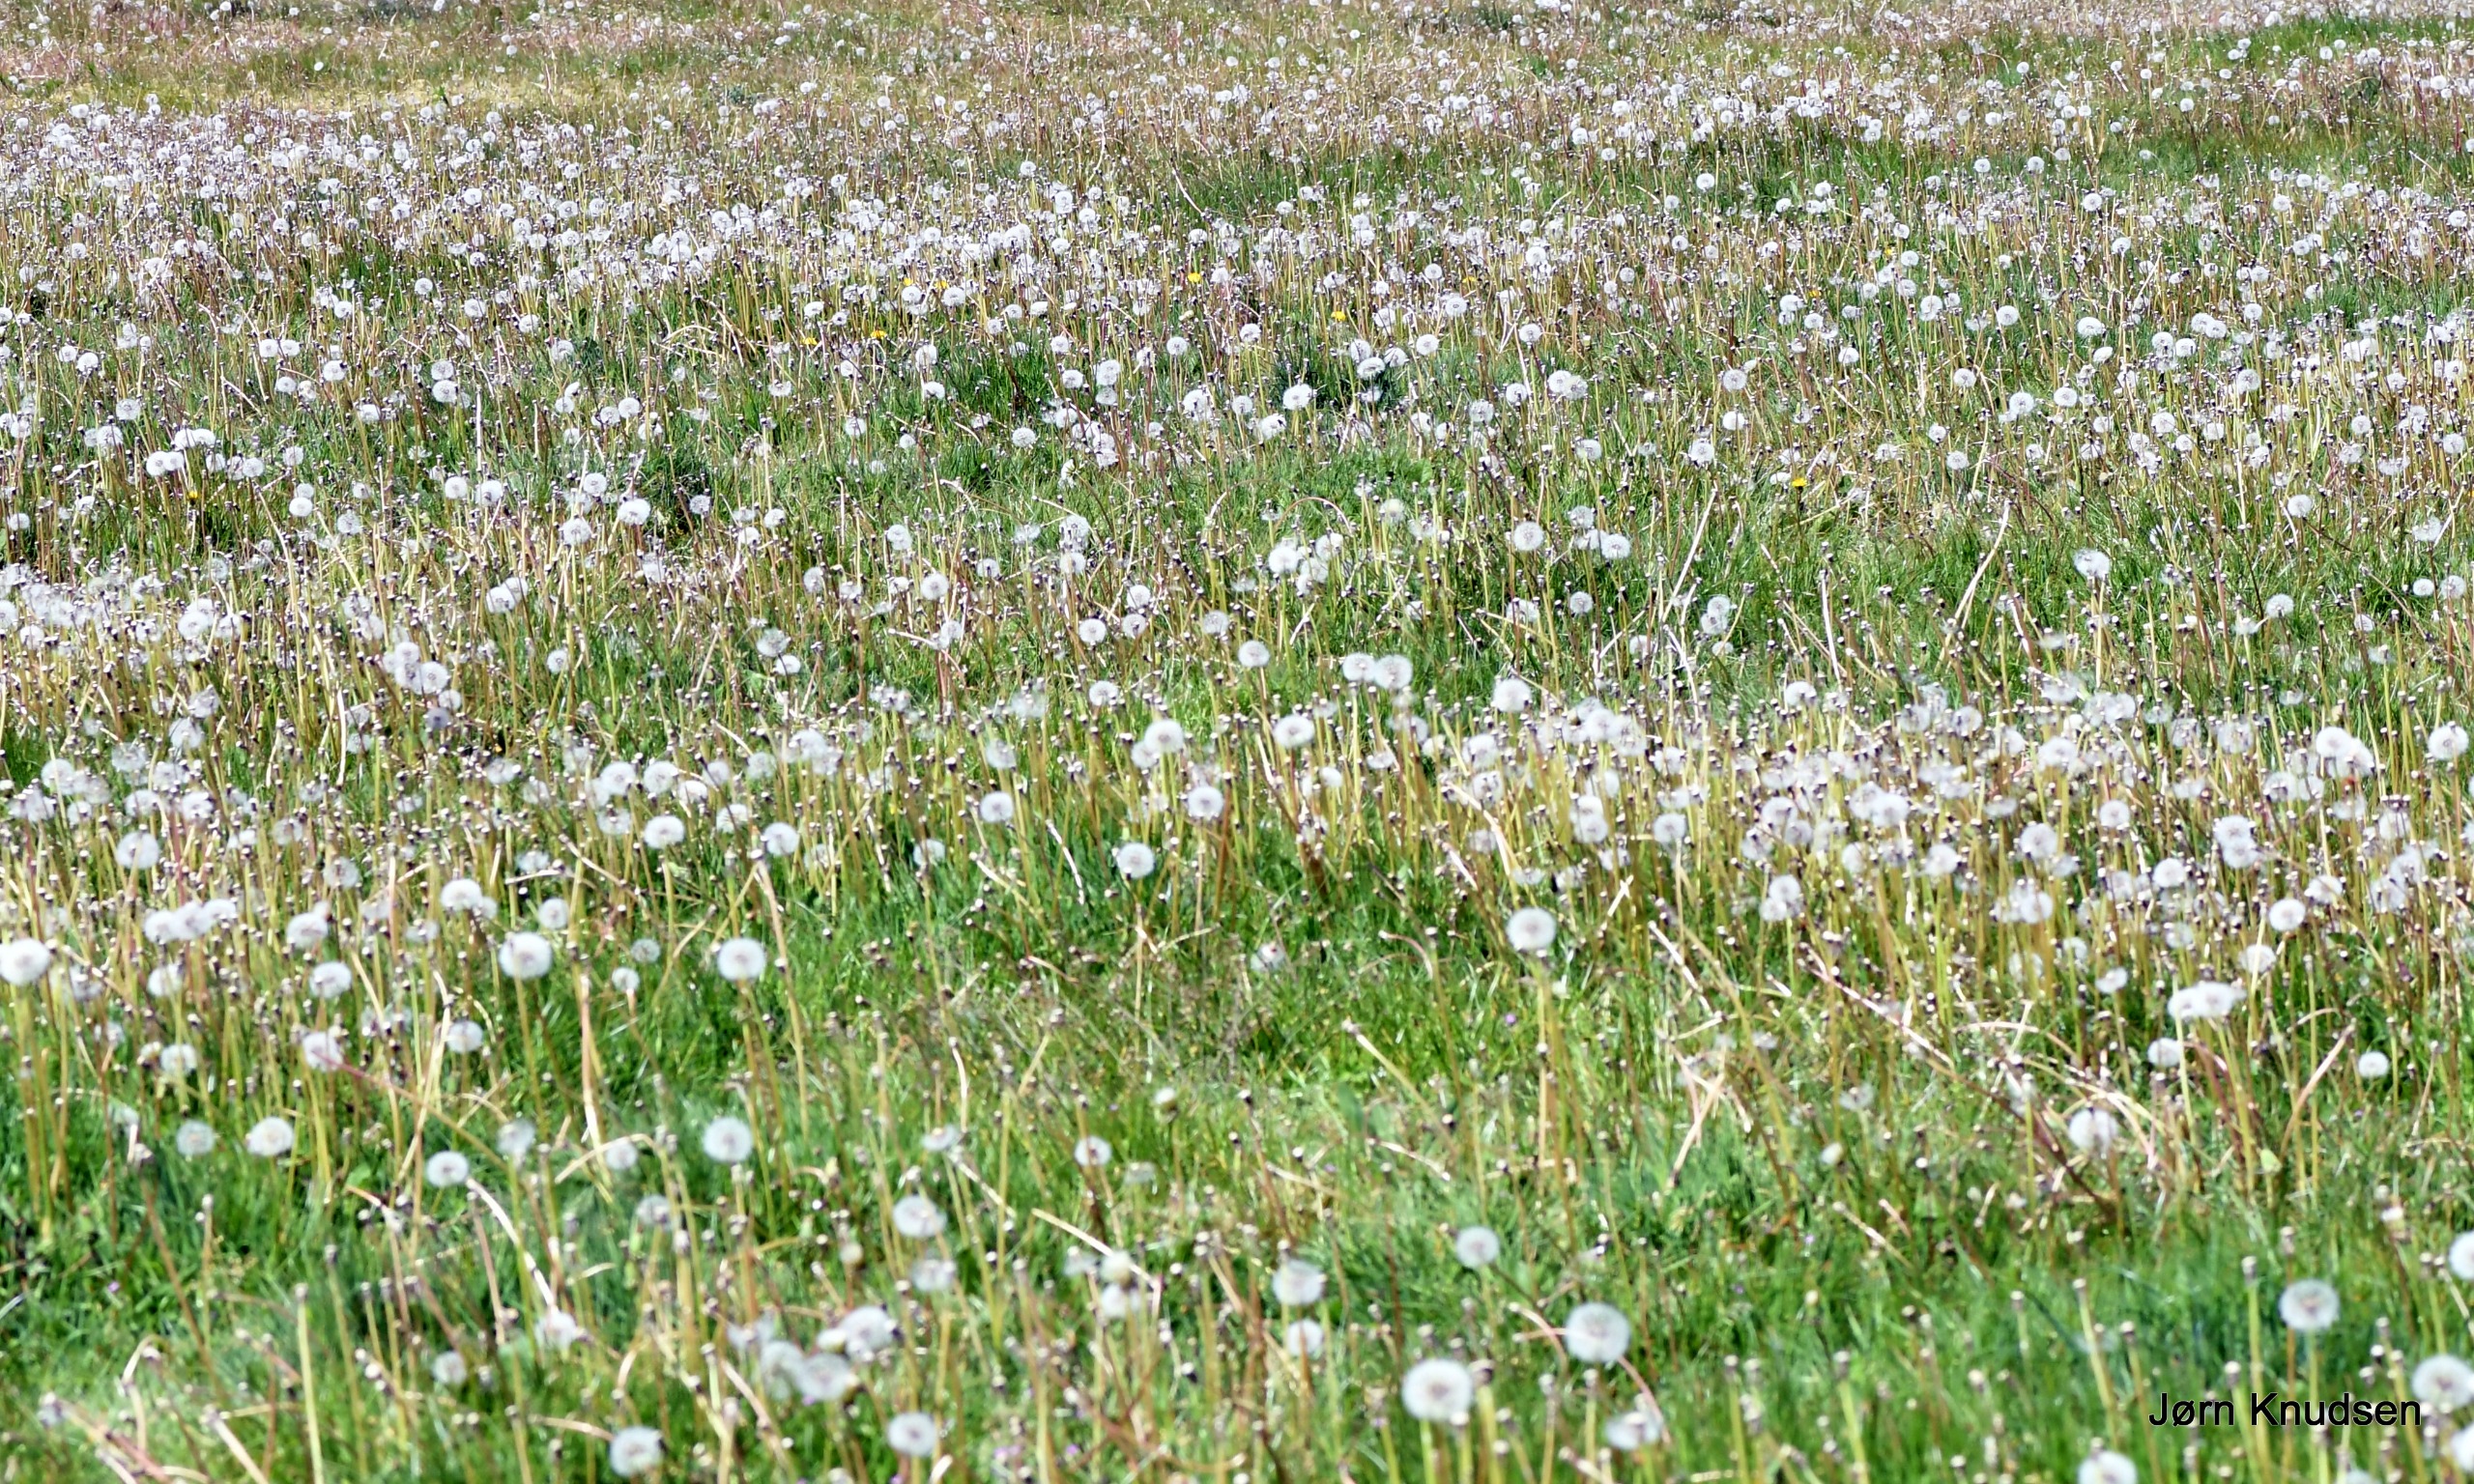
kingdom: Plantae
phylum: Tracheophyta
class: Magnoliopsida
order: Asterales
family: Asteraceae
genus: Taraxacum
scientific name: Taraxacum
